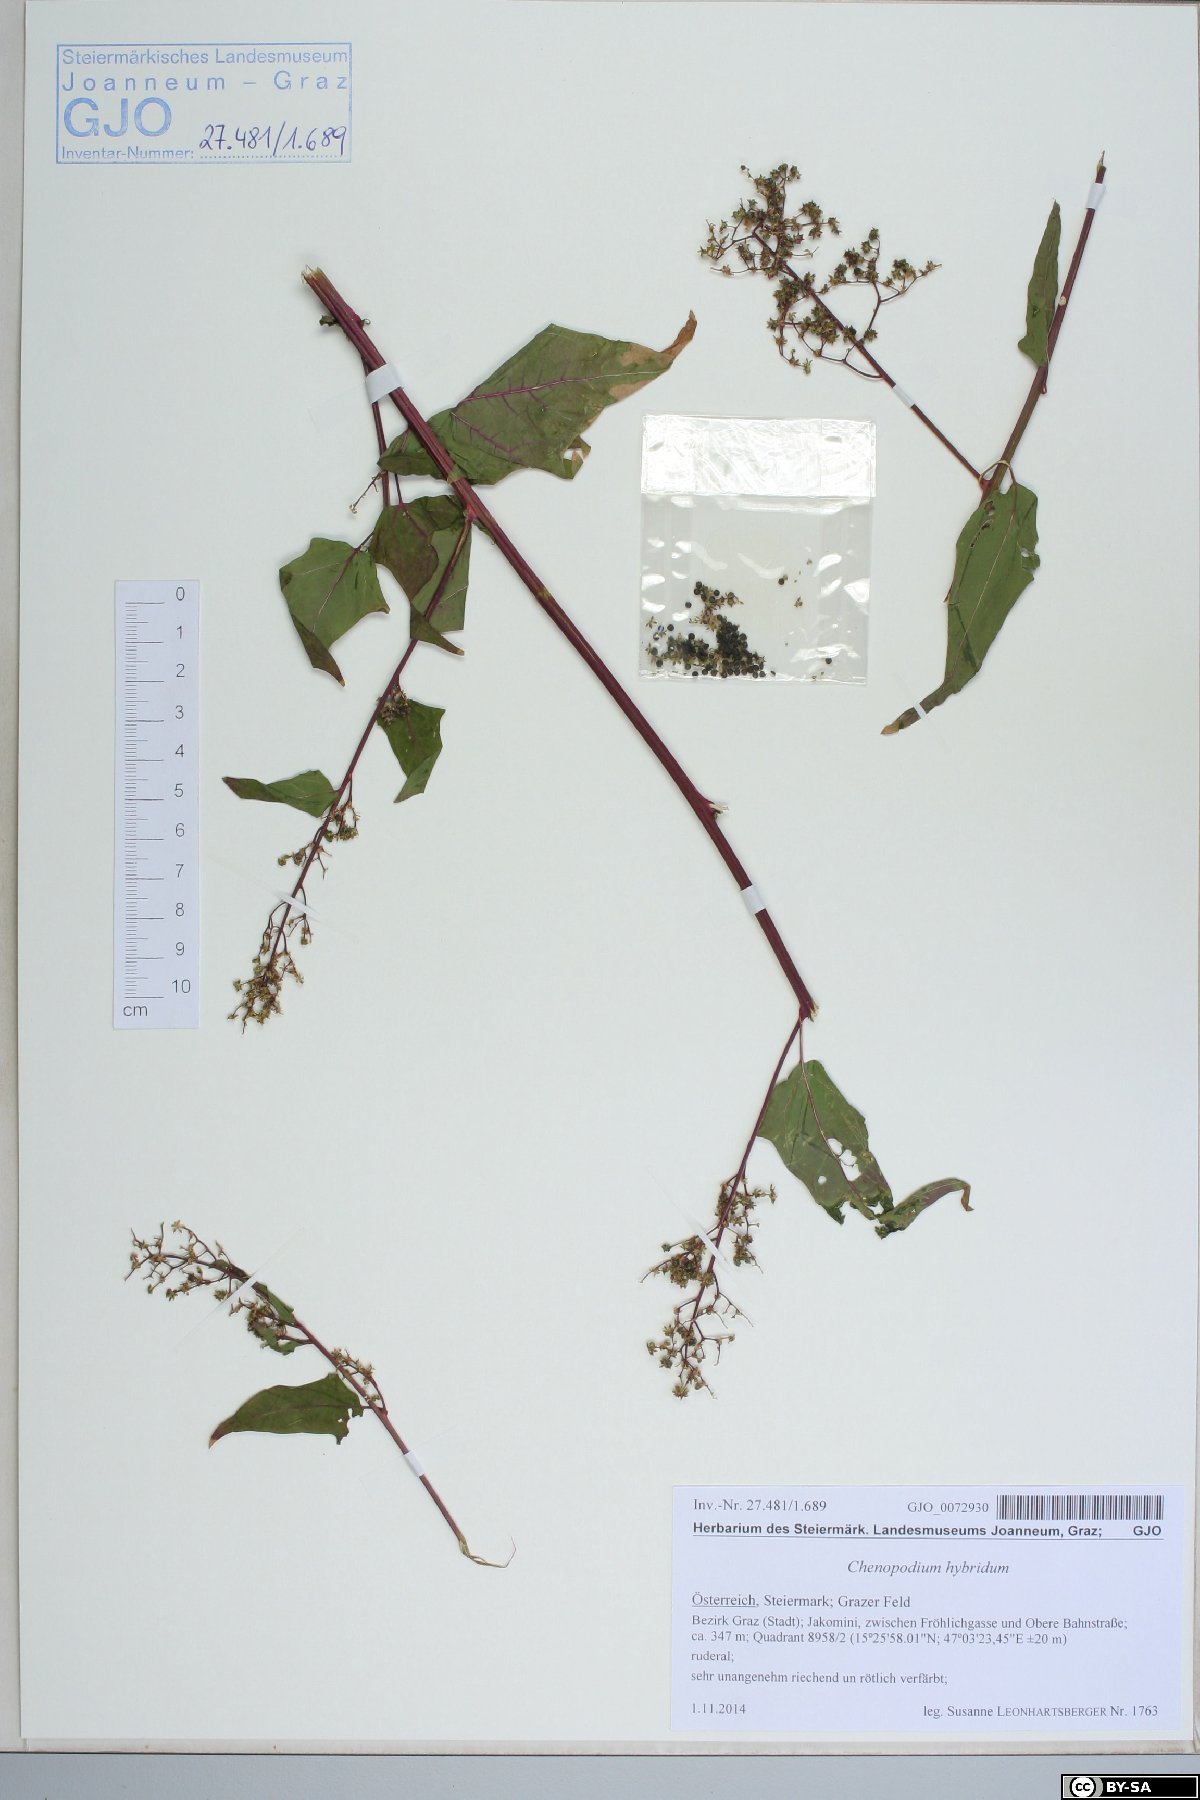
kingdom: Plantae
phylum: Tracheophyta
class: Magnoliopsida
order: Caryophyllales
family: Amaranthaceae
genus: Chenopodiastrum
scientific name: Chenopodiastrum hybridum
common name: Mapleleaf goosefoot
